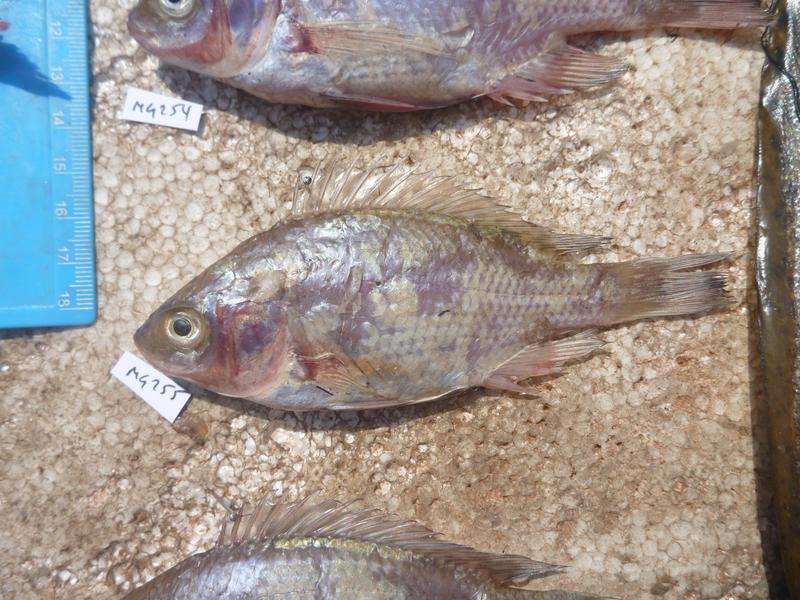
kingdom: Animalia
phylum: Chordata
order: Perciformes
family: Cichlidae
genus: Oreochromis
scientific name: Oreochromis esculentus
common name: Carp
